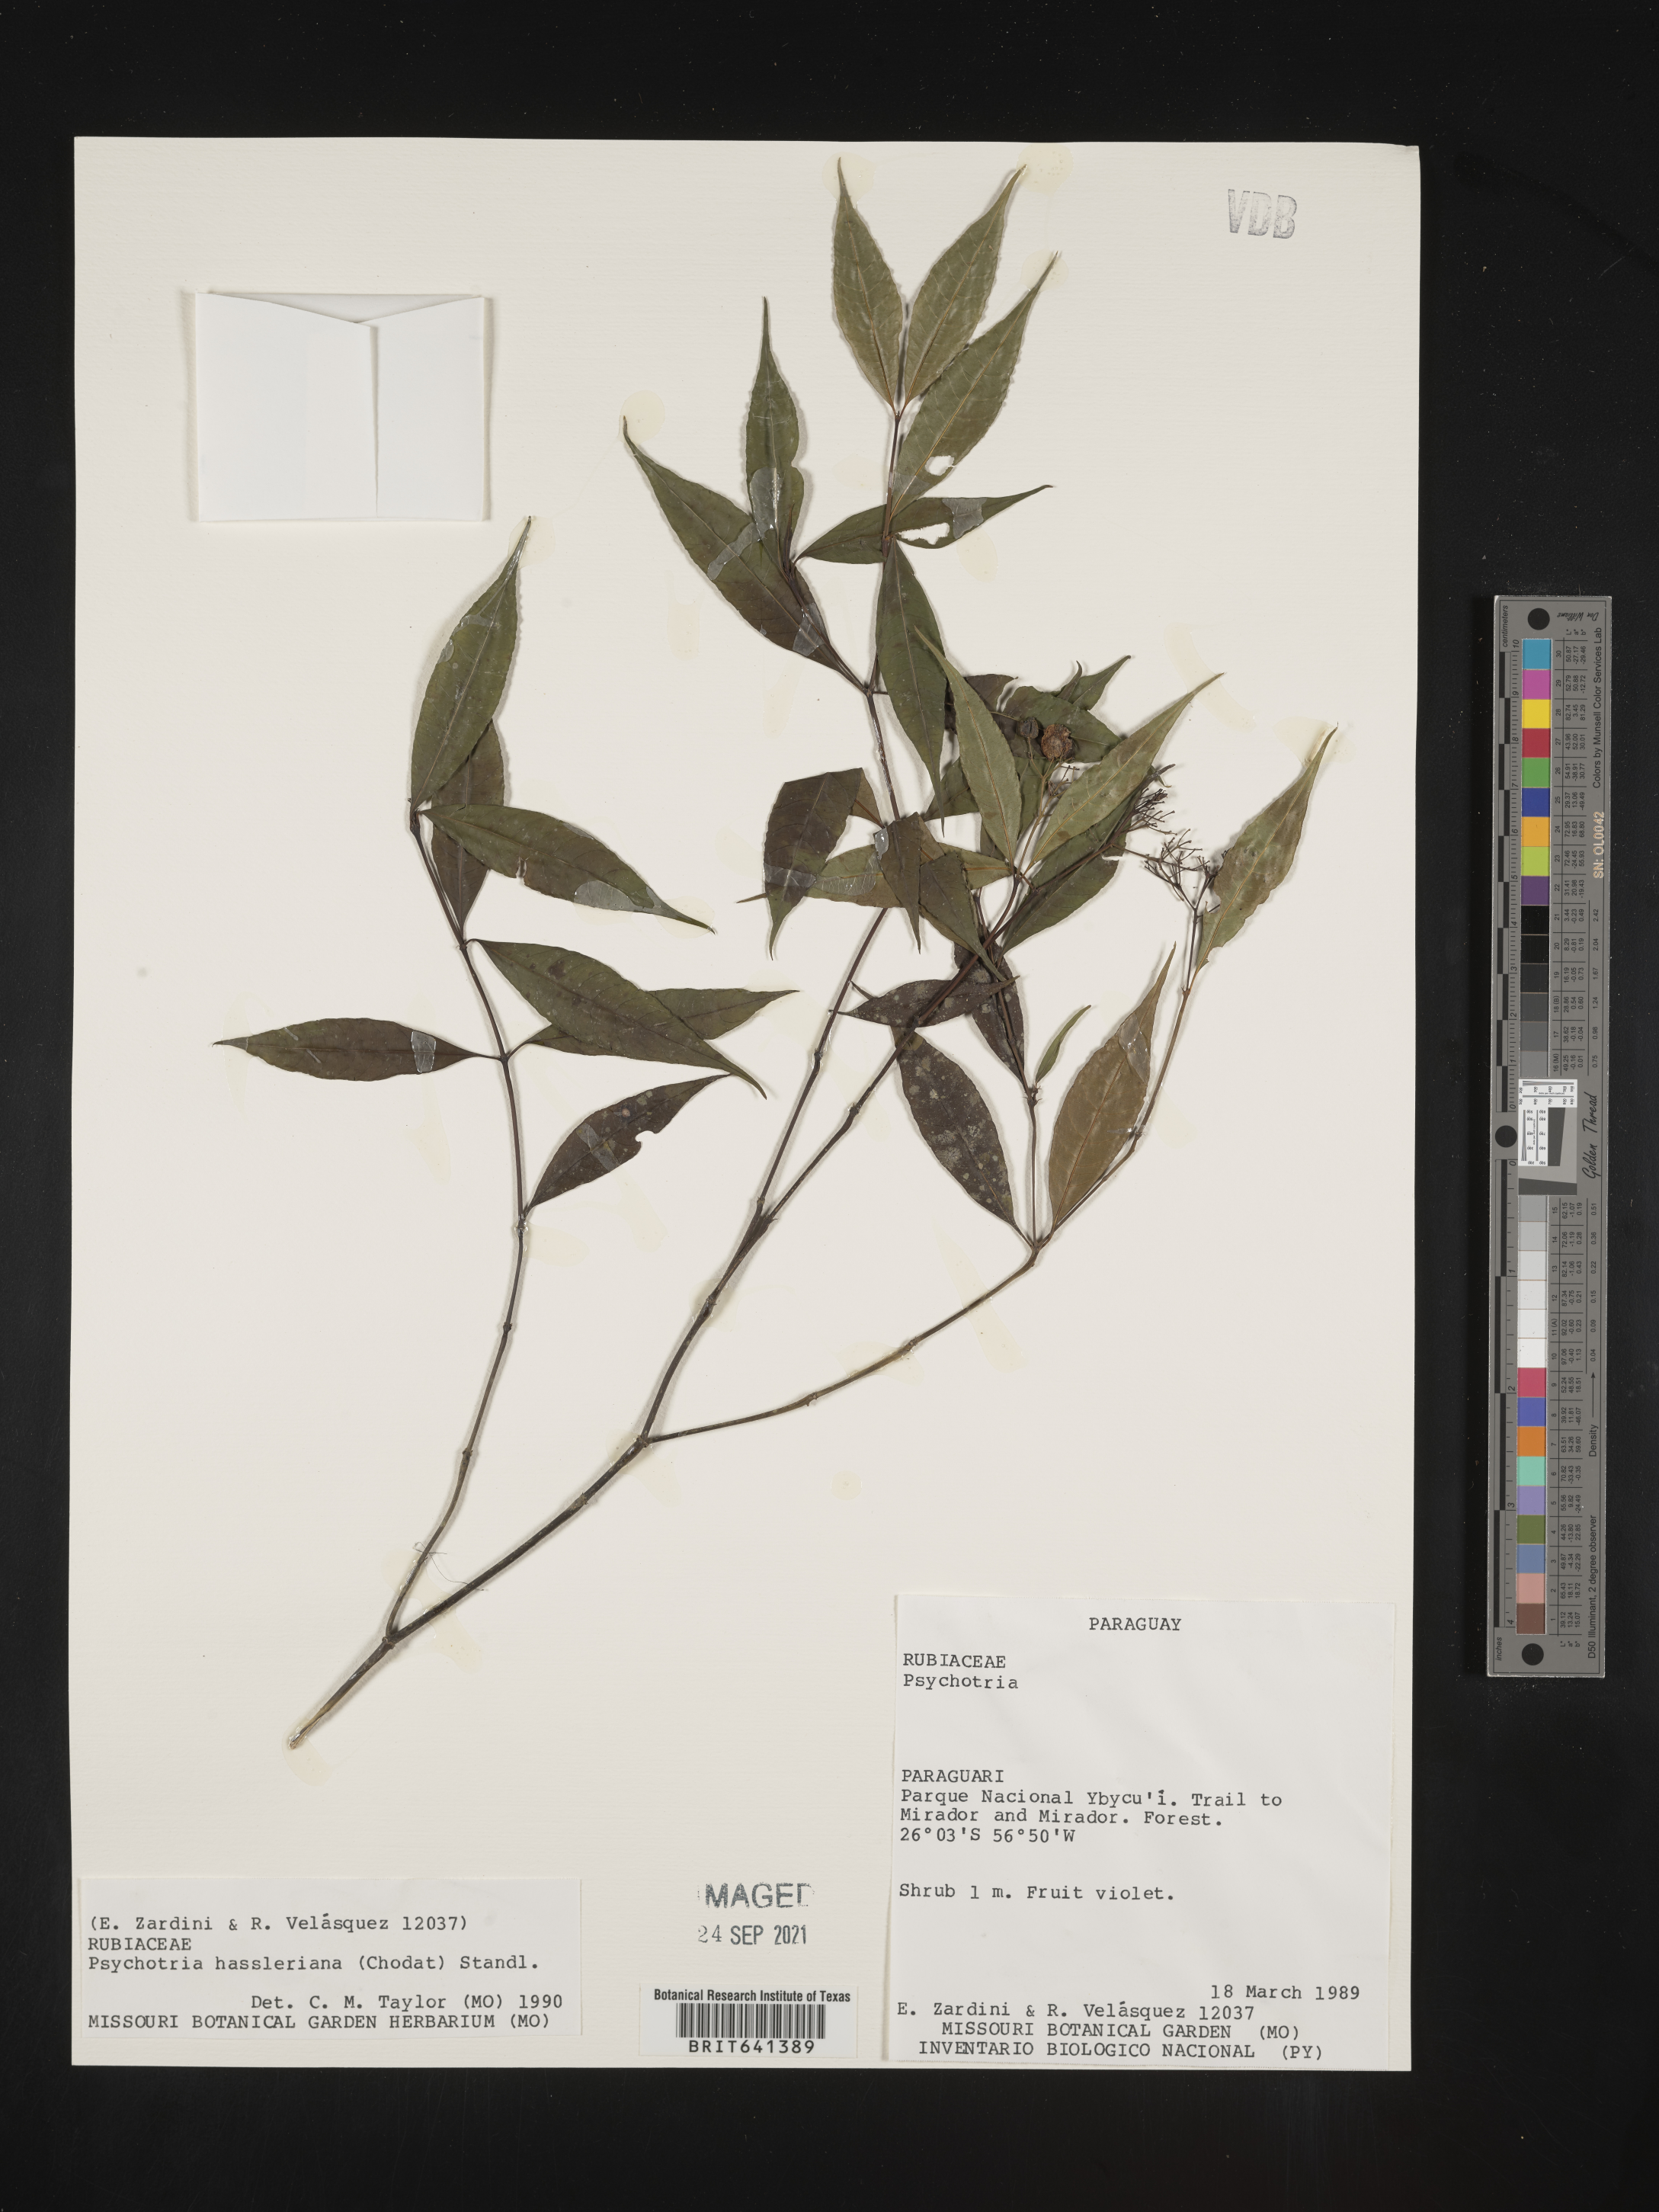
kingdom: Plantae
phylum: Tracheophyta
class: Magnoliopsida
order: Gentianales
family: Rubiaceae
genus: Psychotria
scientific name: Psychotria
